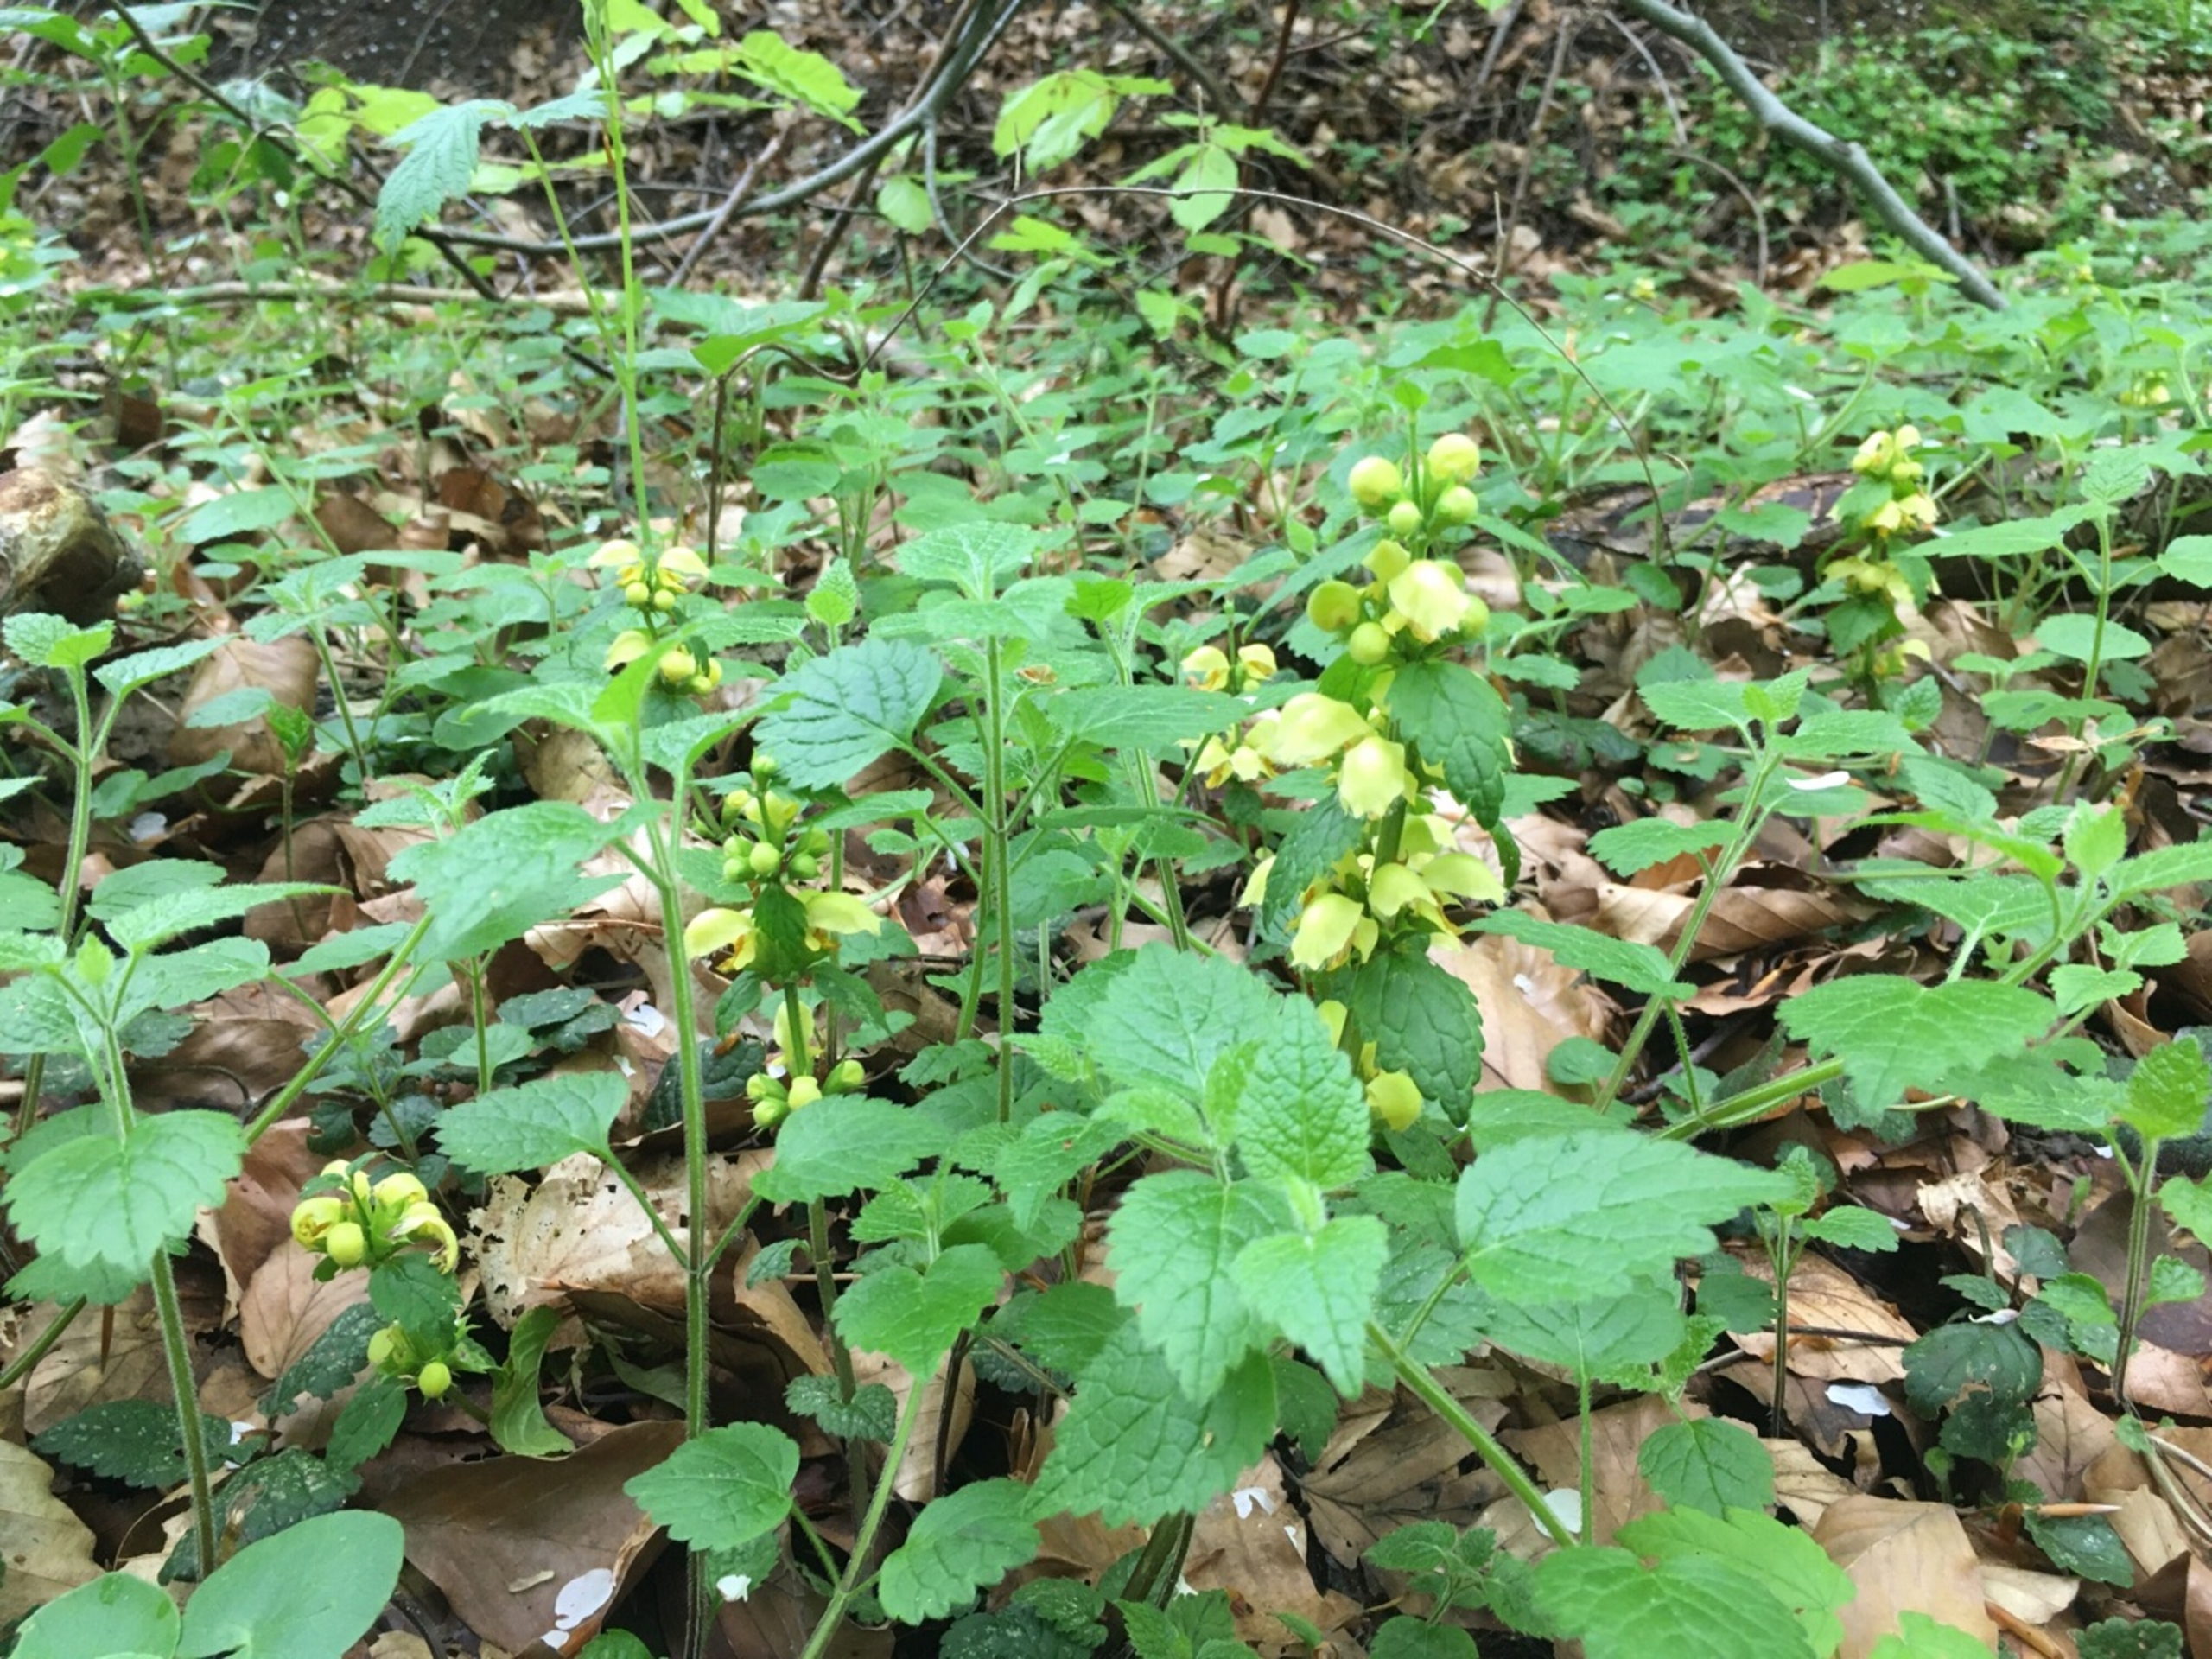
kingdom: Plantae
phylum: Tracheophyta
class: Magnoliopsida
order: Lamiales
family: Lamiaceae
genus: Lamium
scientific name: Lamium galeobdolon
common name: Almindelig guldnælde
